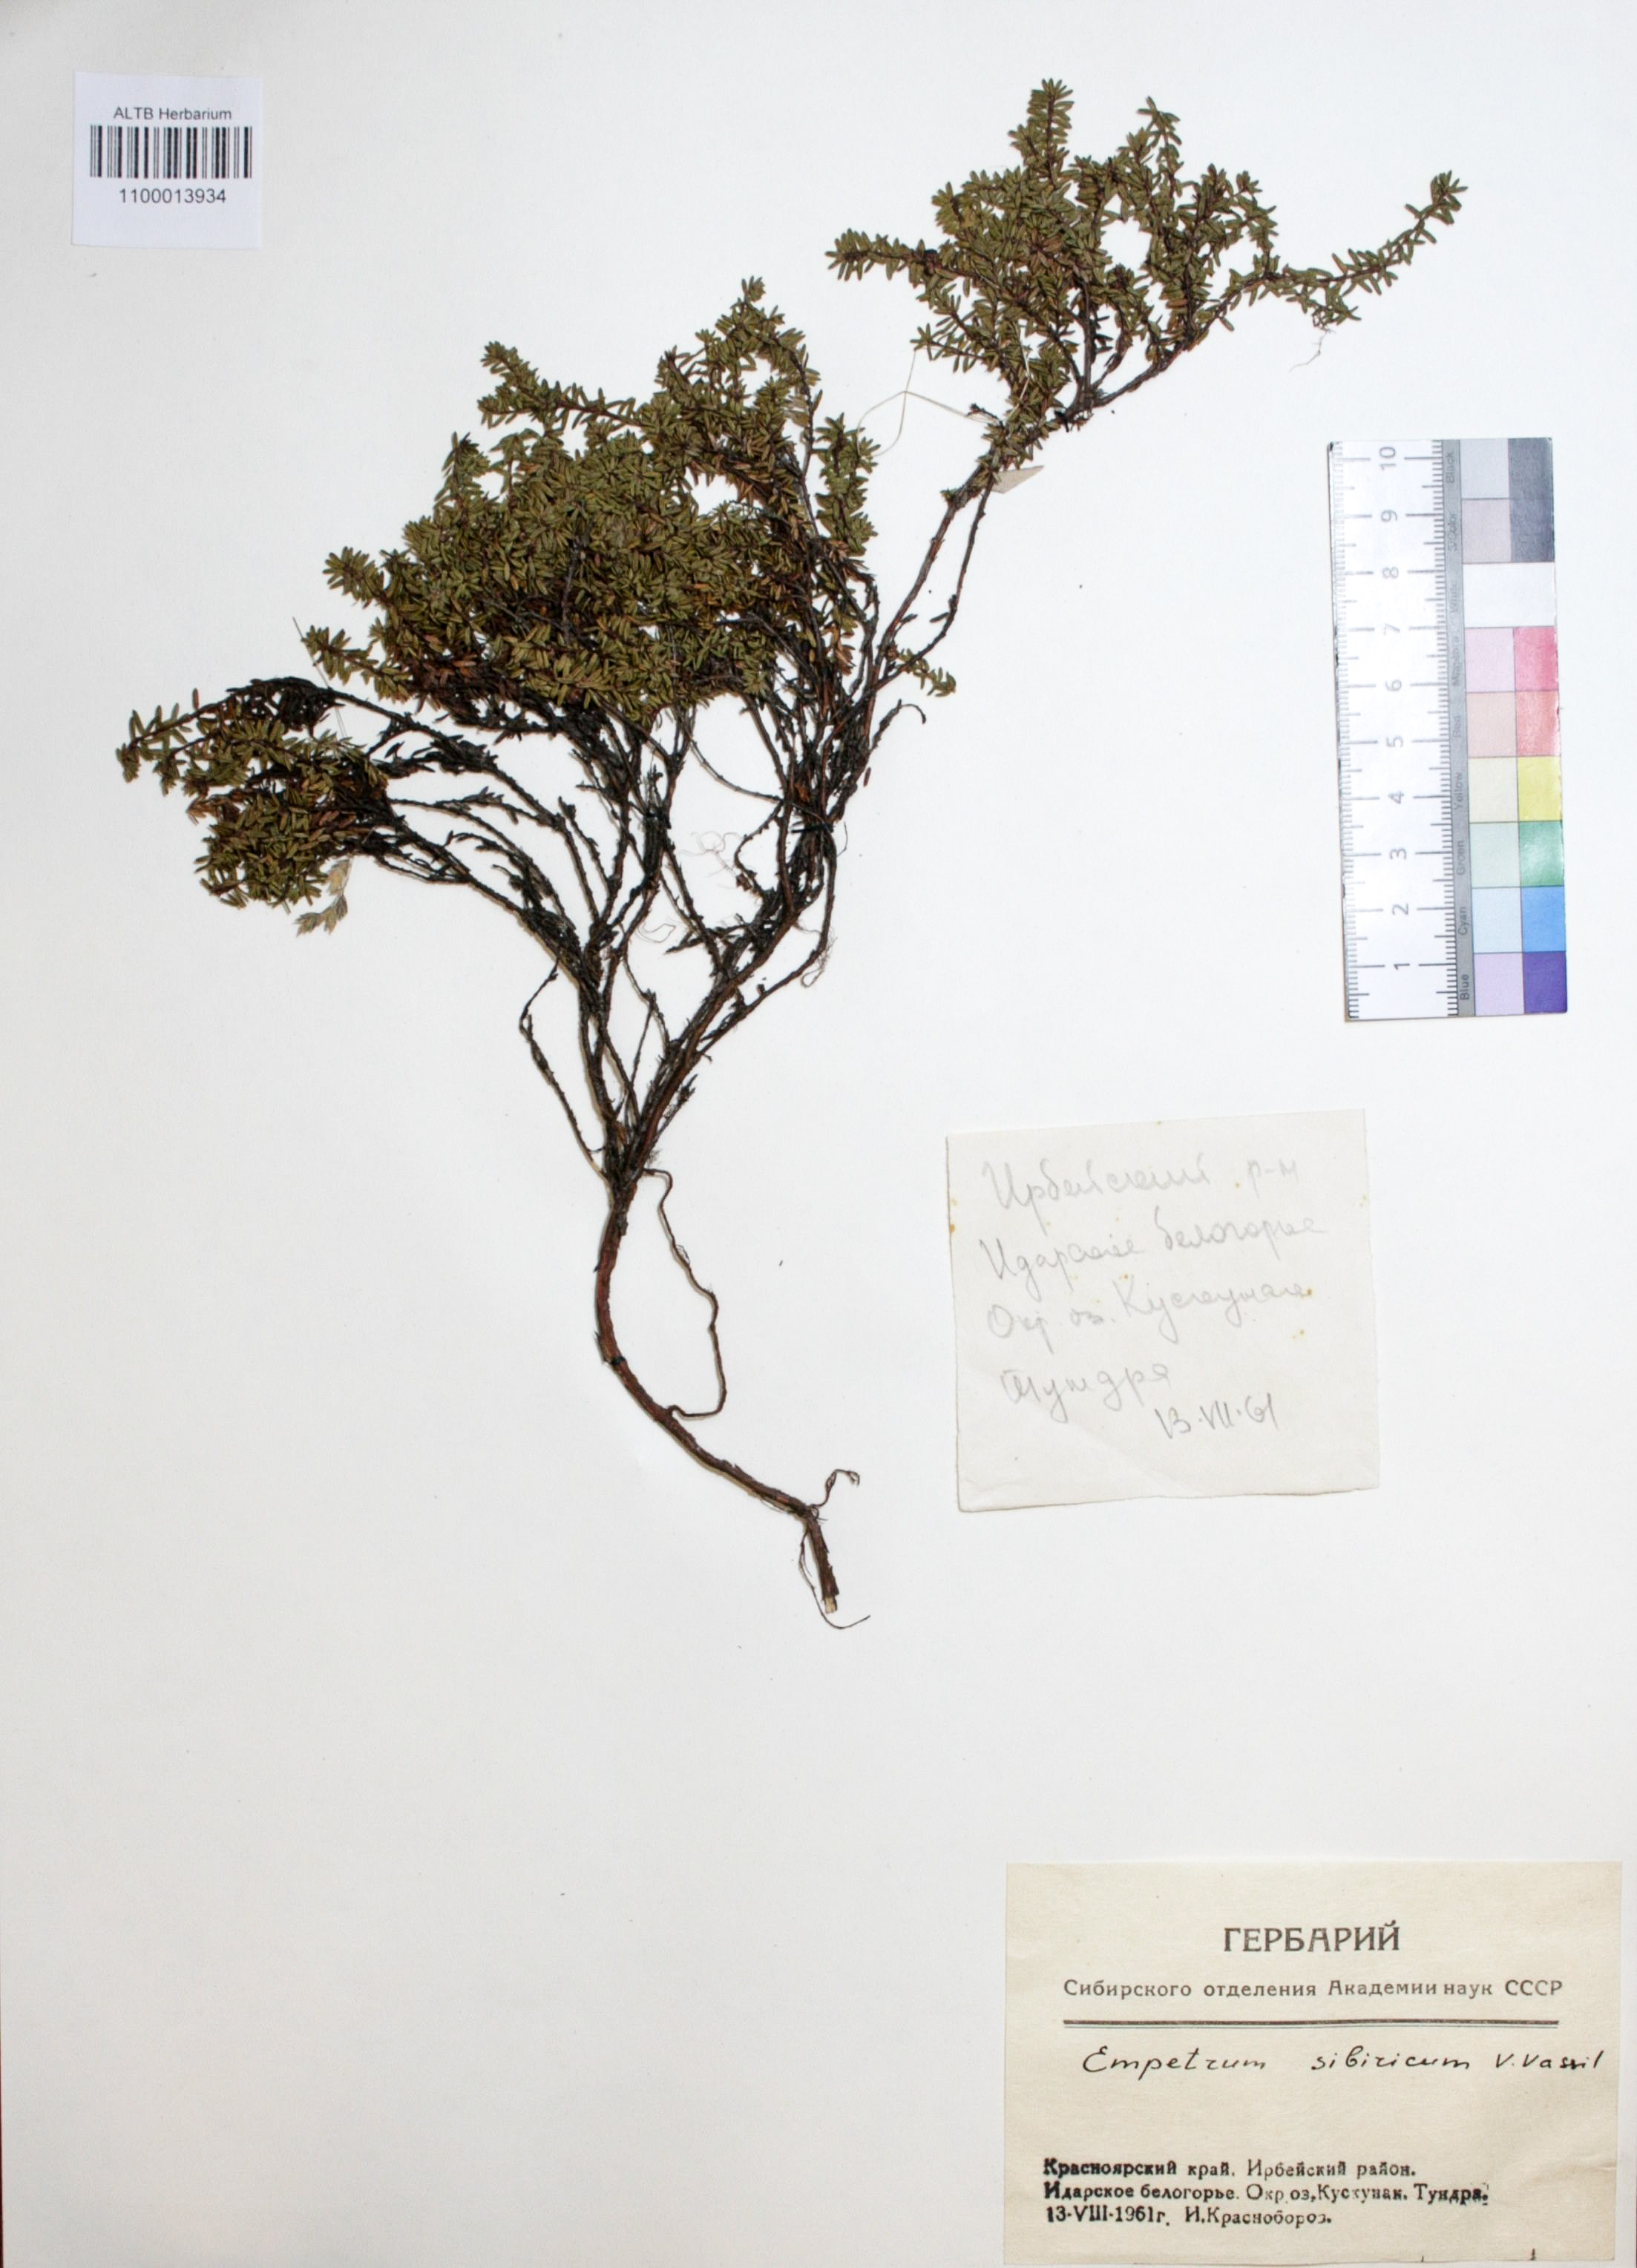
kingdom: Plantae
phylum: Tracheophyta
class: Magnoliopsida
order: Ericales
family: Ericaceae
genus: Empetrum
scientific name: Empetrum nigrum
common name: Black crowberry
